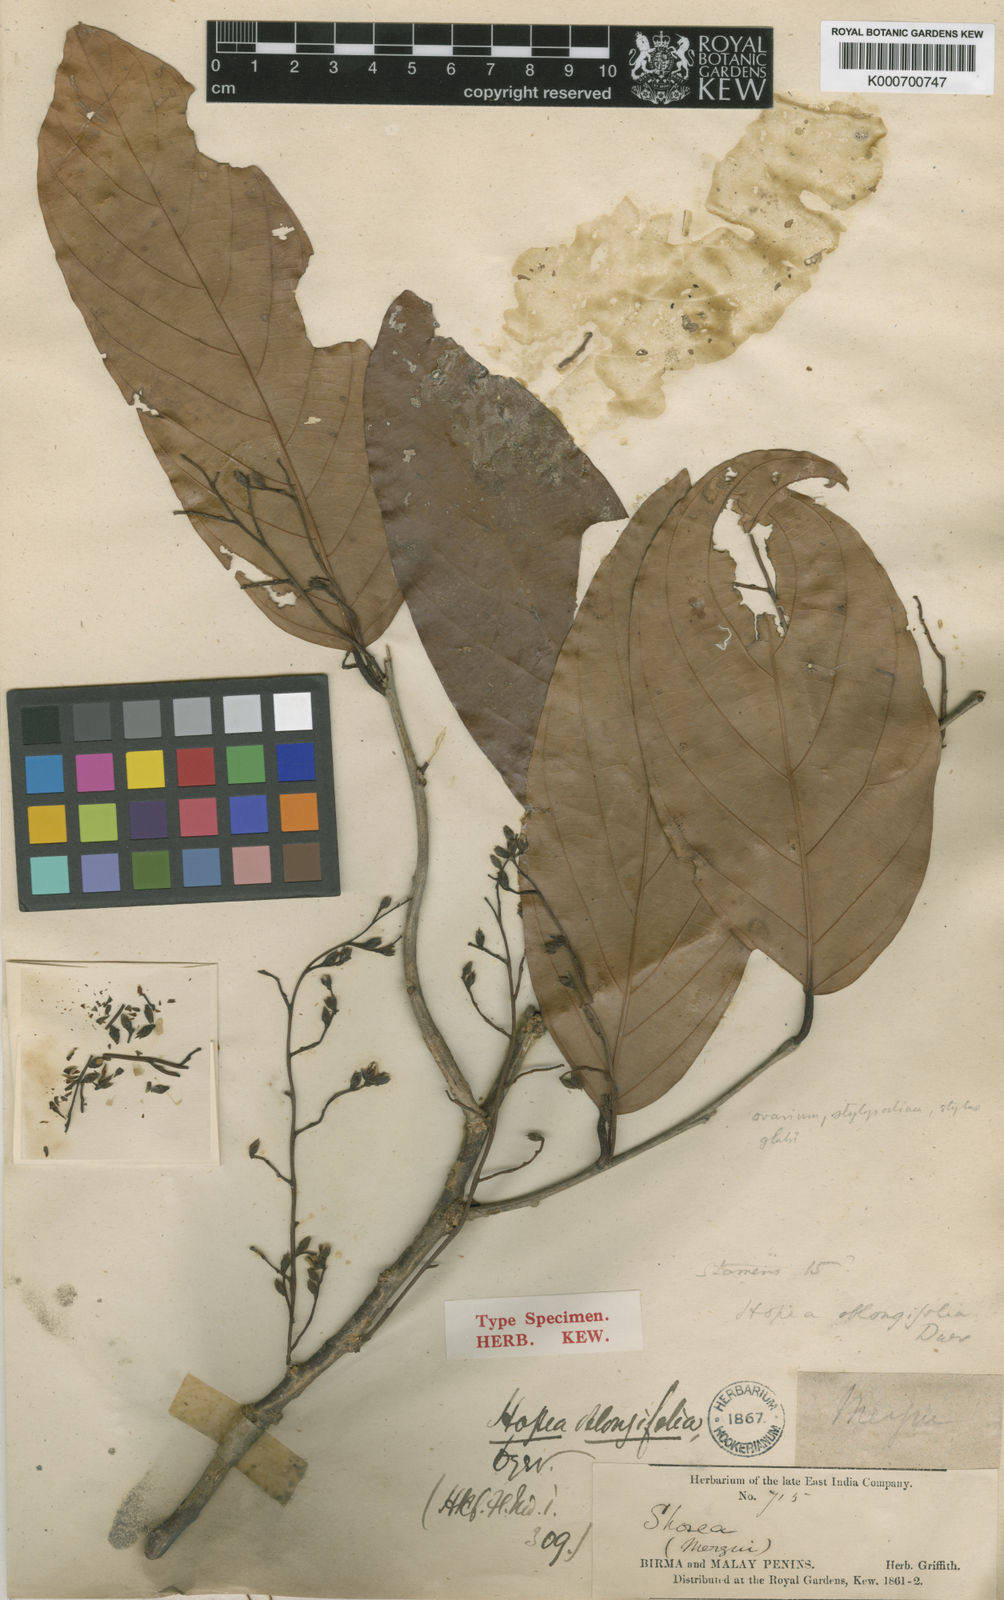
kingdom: Plantae
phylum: Tracheophyta
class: Magnoliopsida
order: Malvales
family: Dipterocarpaceae
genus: Hopea
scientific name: Hopea oblongifolia
